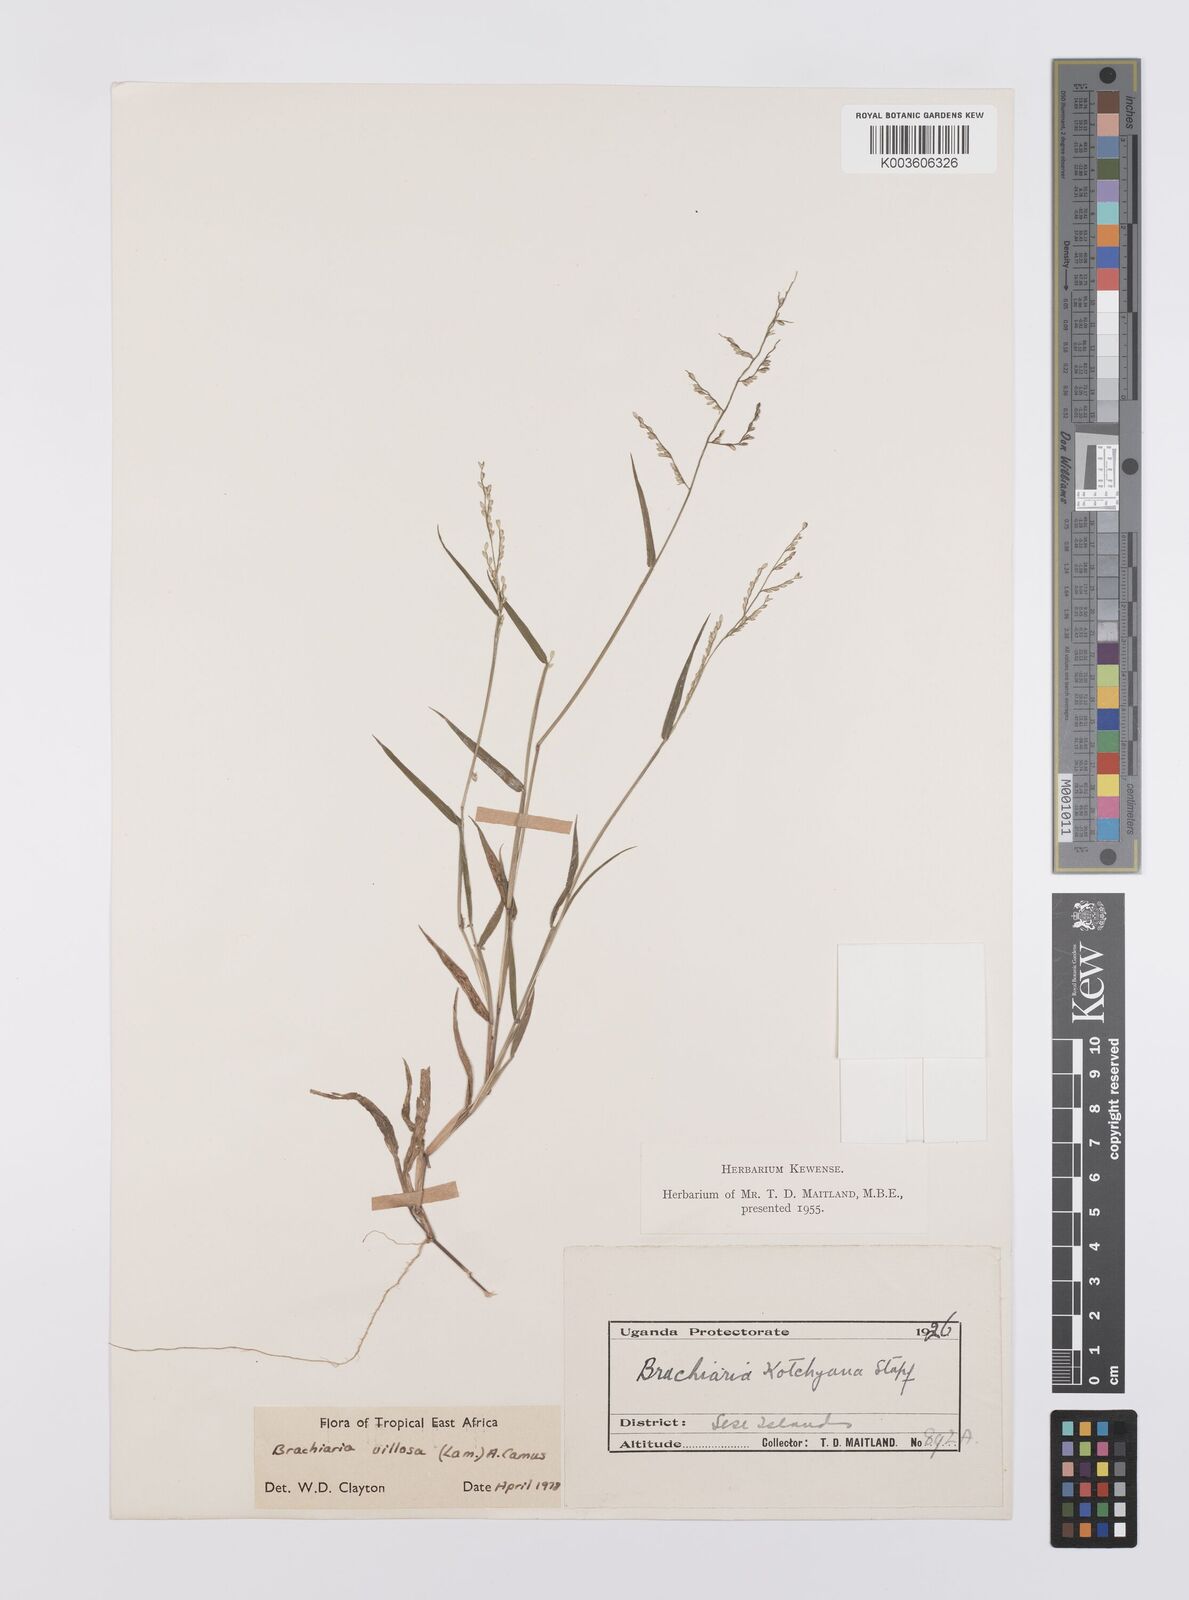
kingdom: Plantae
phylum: Tracheophyta
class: Liliopsida
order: Poales
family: Poaceae
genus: Urochloa
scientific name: Urochloa villosa
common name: Hairy signalgrass
